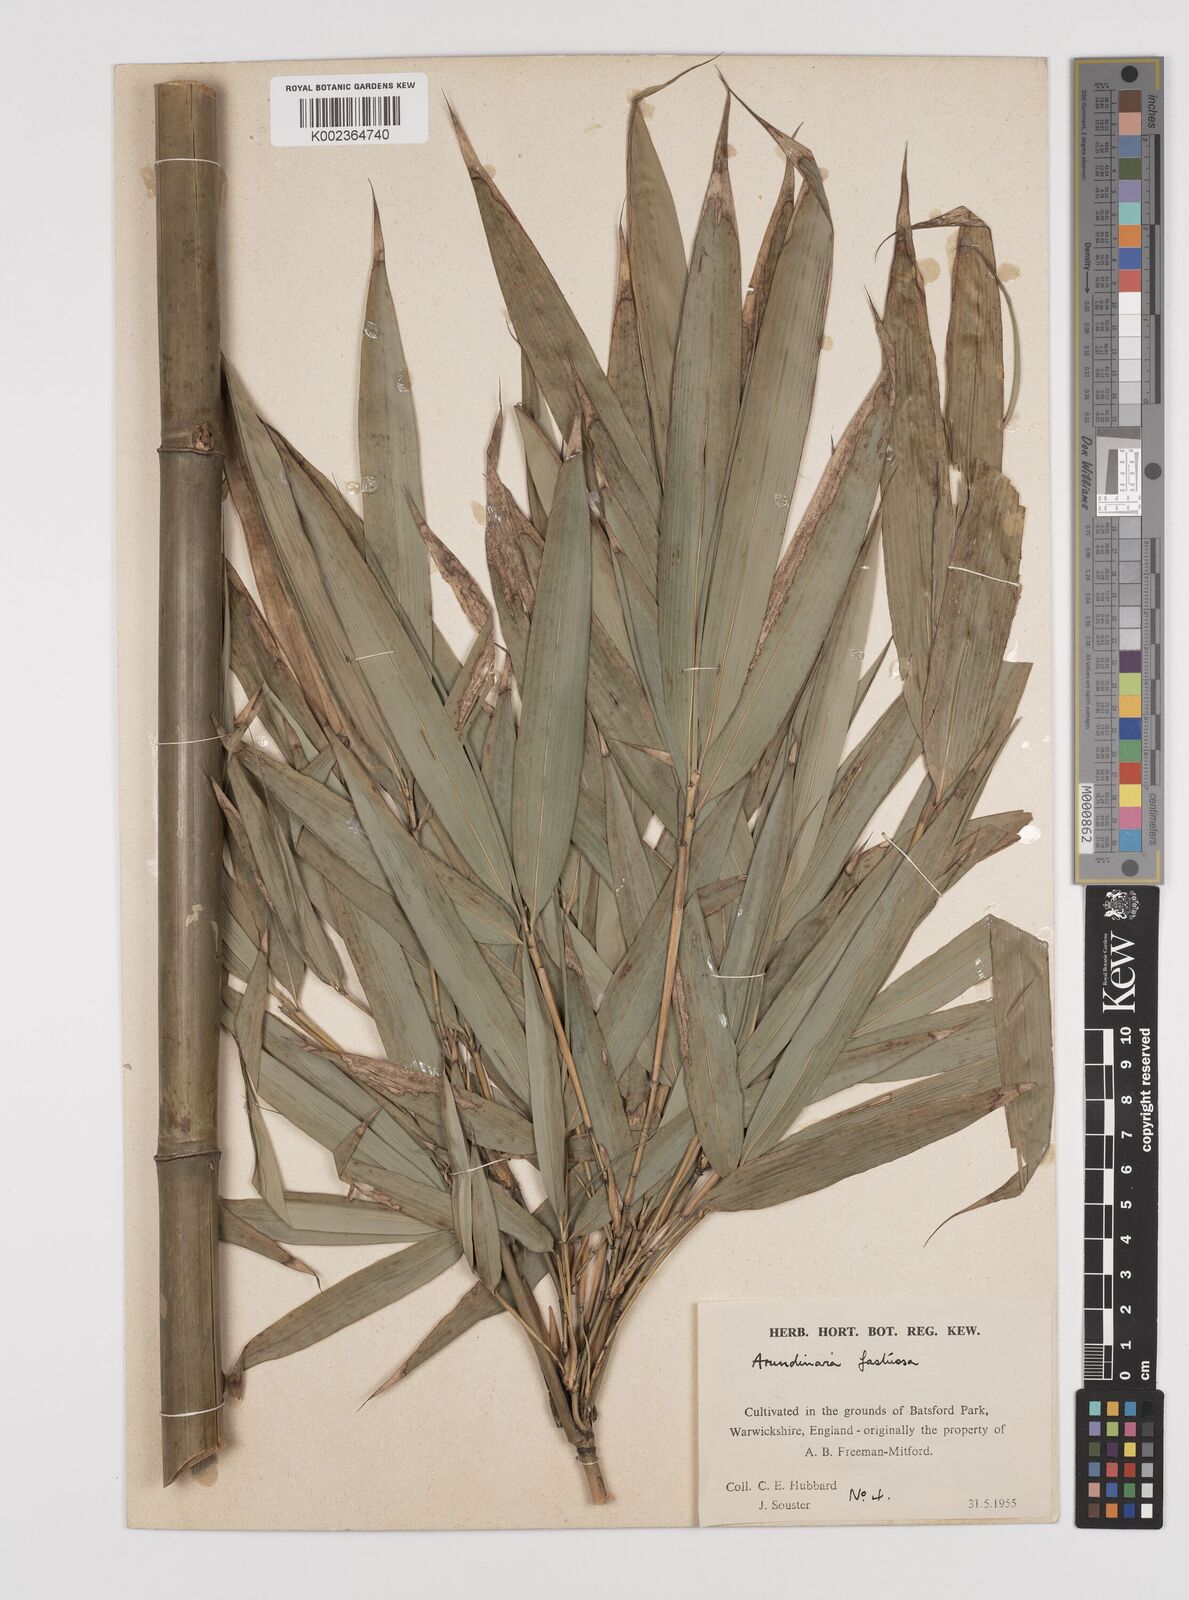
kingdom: Plantae
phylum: Tracheophyta
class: Liliopsida
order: Poales
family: Poaceae
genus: Semiarundinaria
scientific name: Semiarundinaria fastuosa
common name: Narihira bamboo
